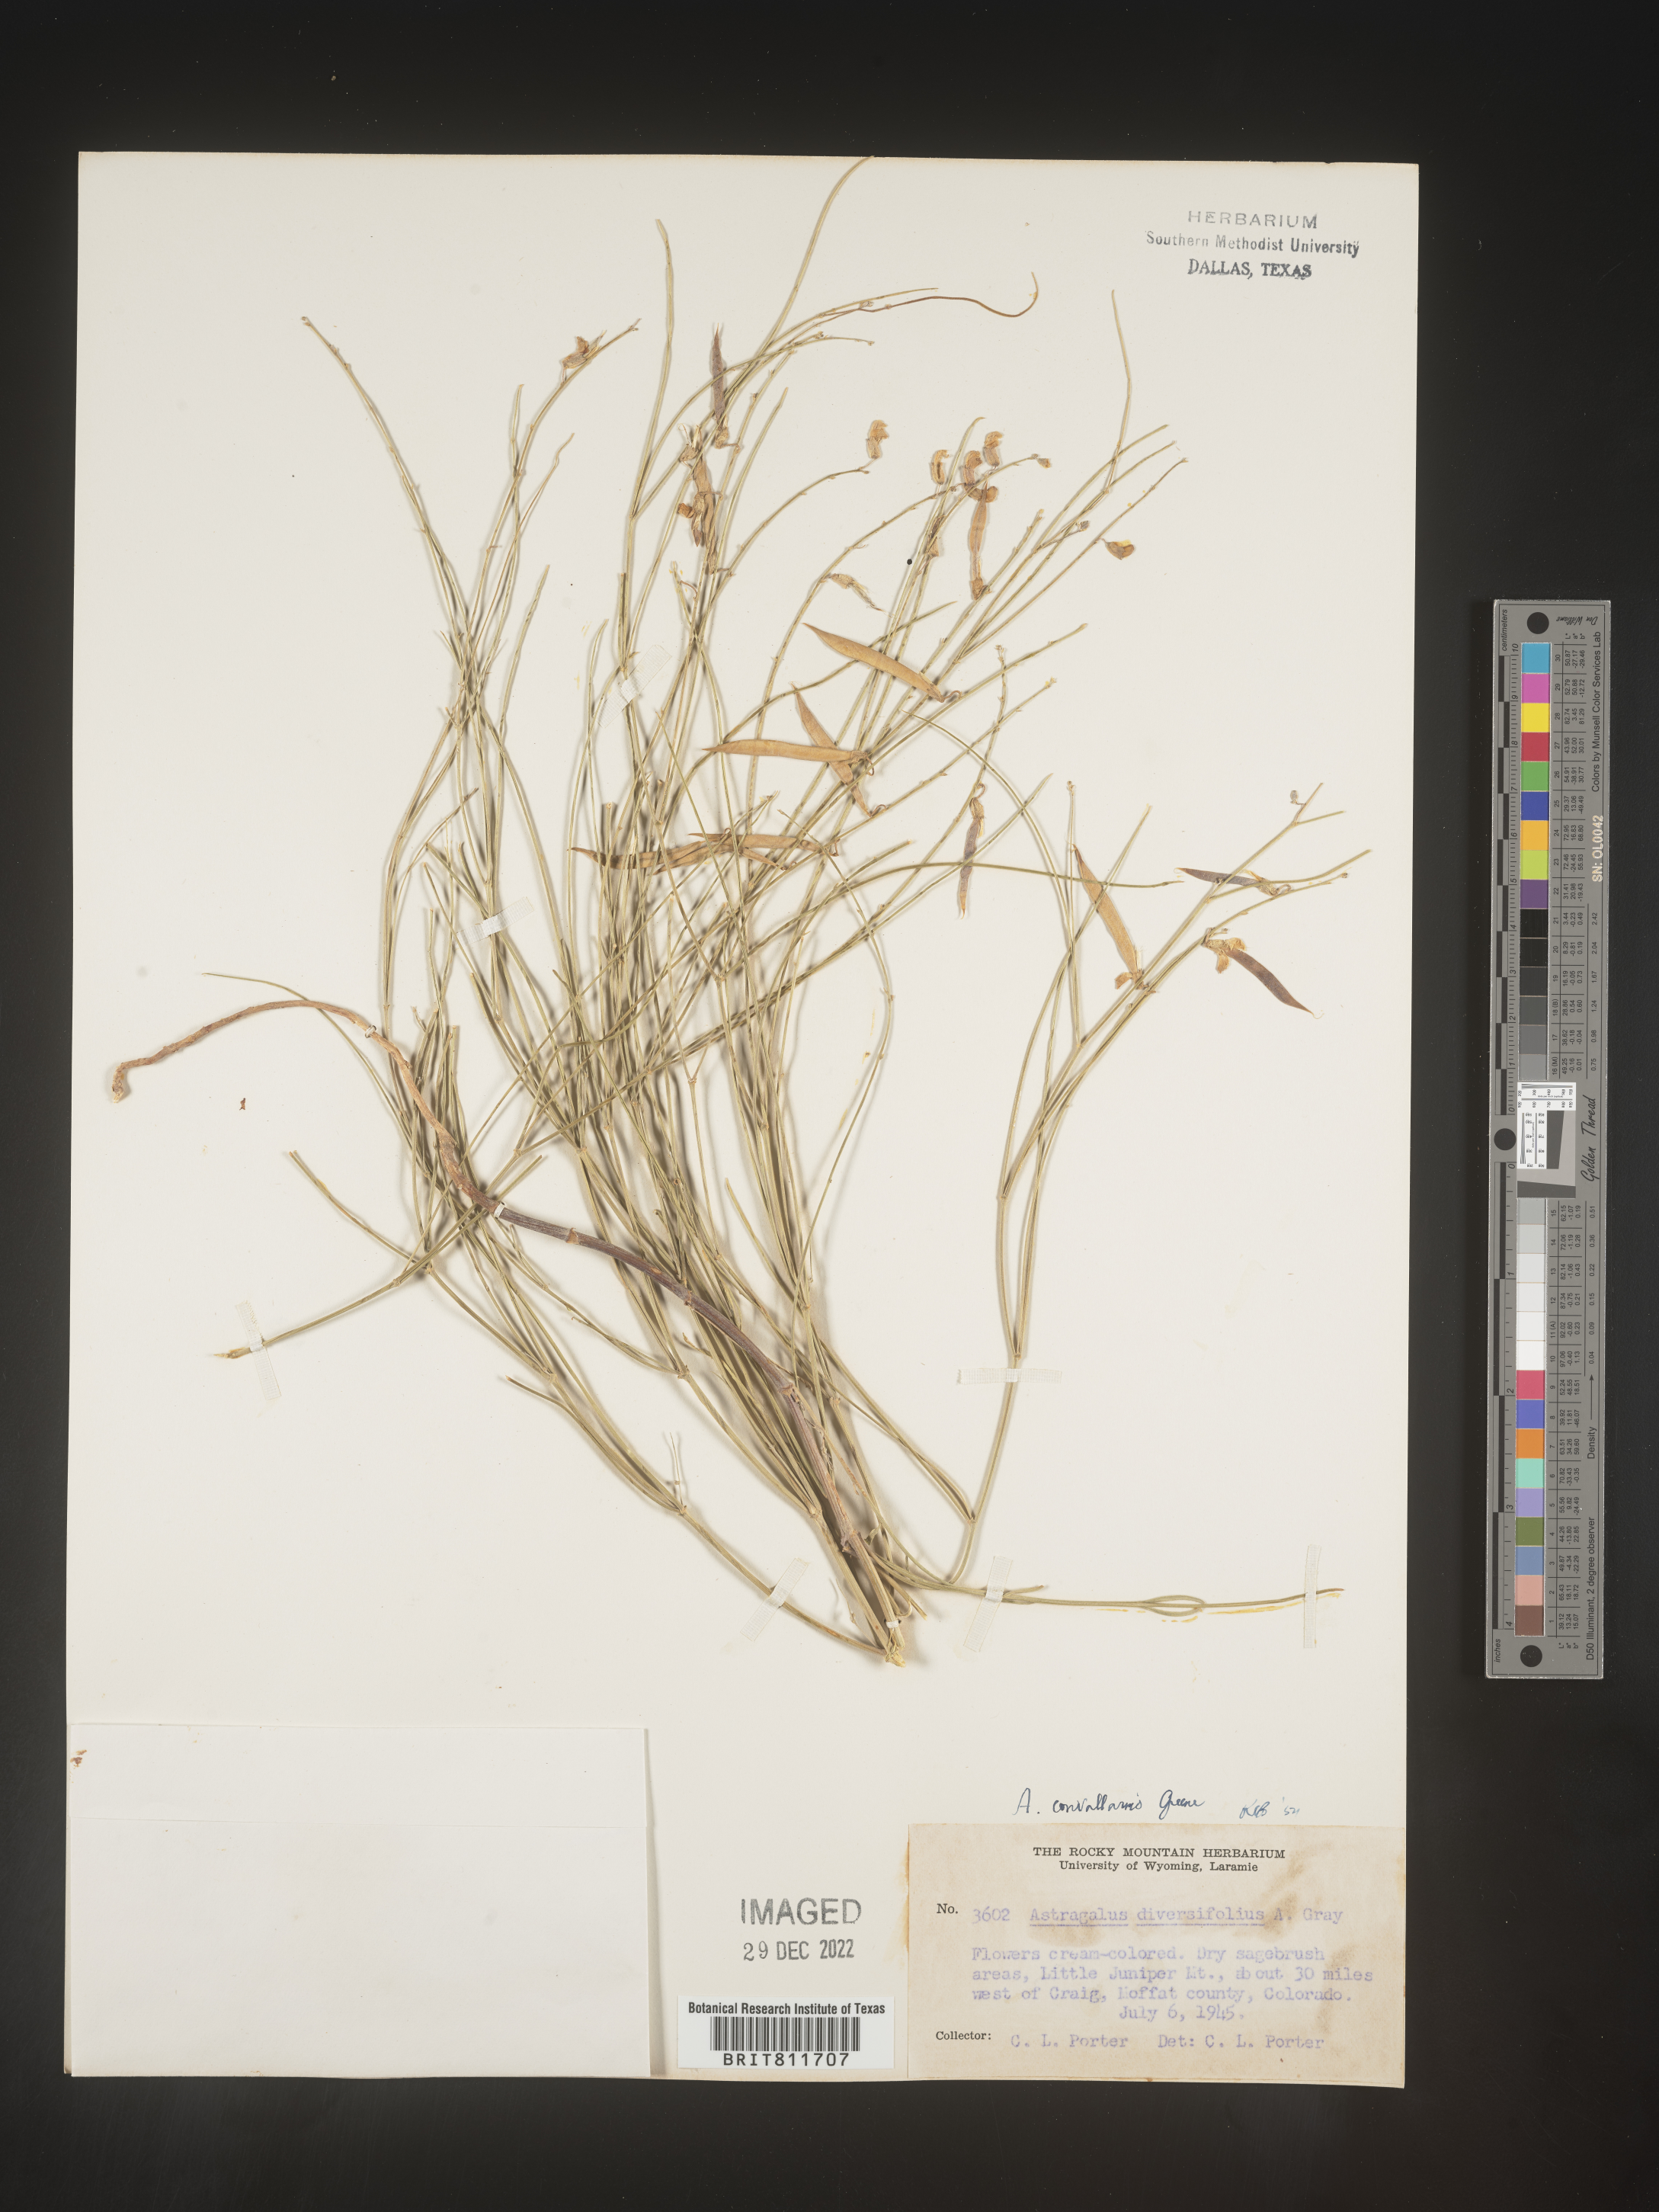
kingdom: Plantae
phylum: Tracheophyta
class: Magnoliopsida
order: Fabales
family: Fabaceae
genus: Astragalus
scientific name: Astragalus convallarius
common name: Lesser rushy milk-vetch
